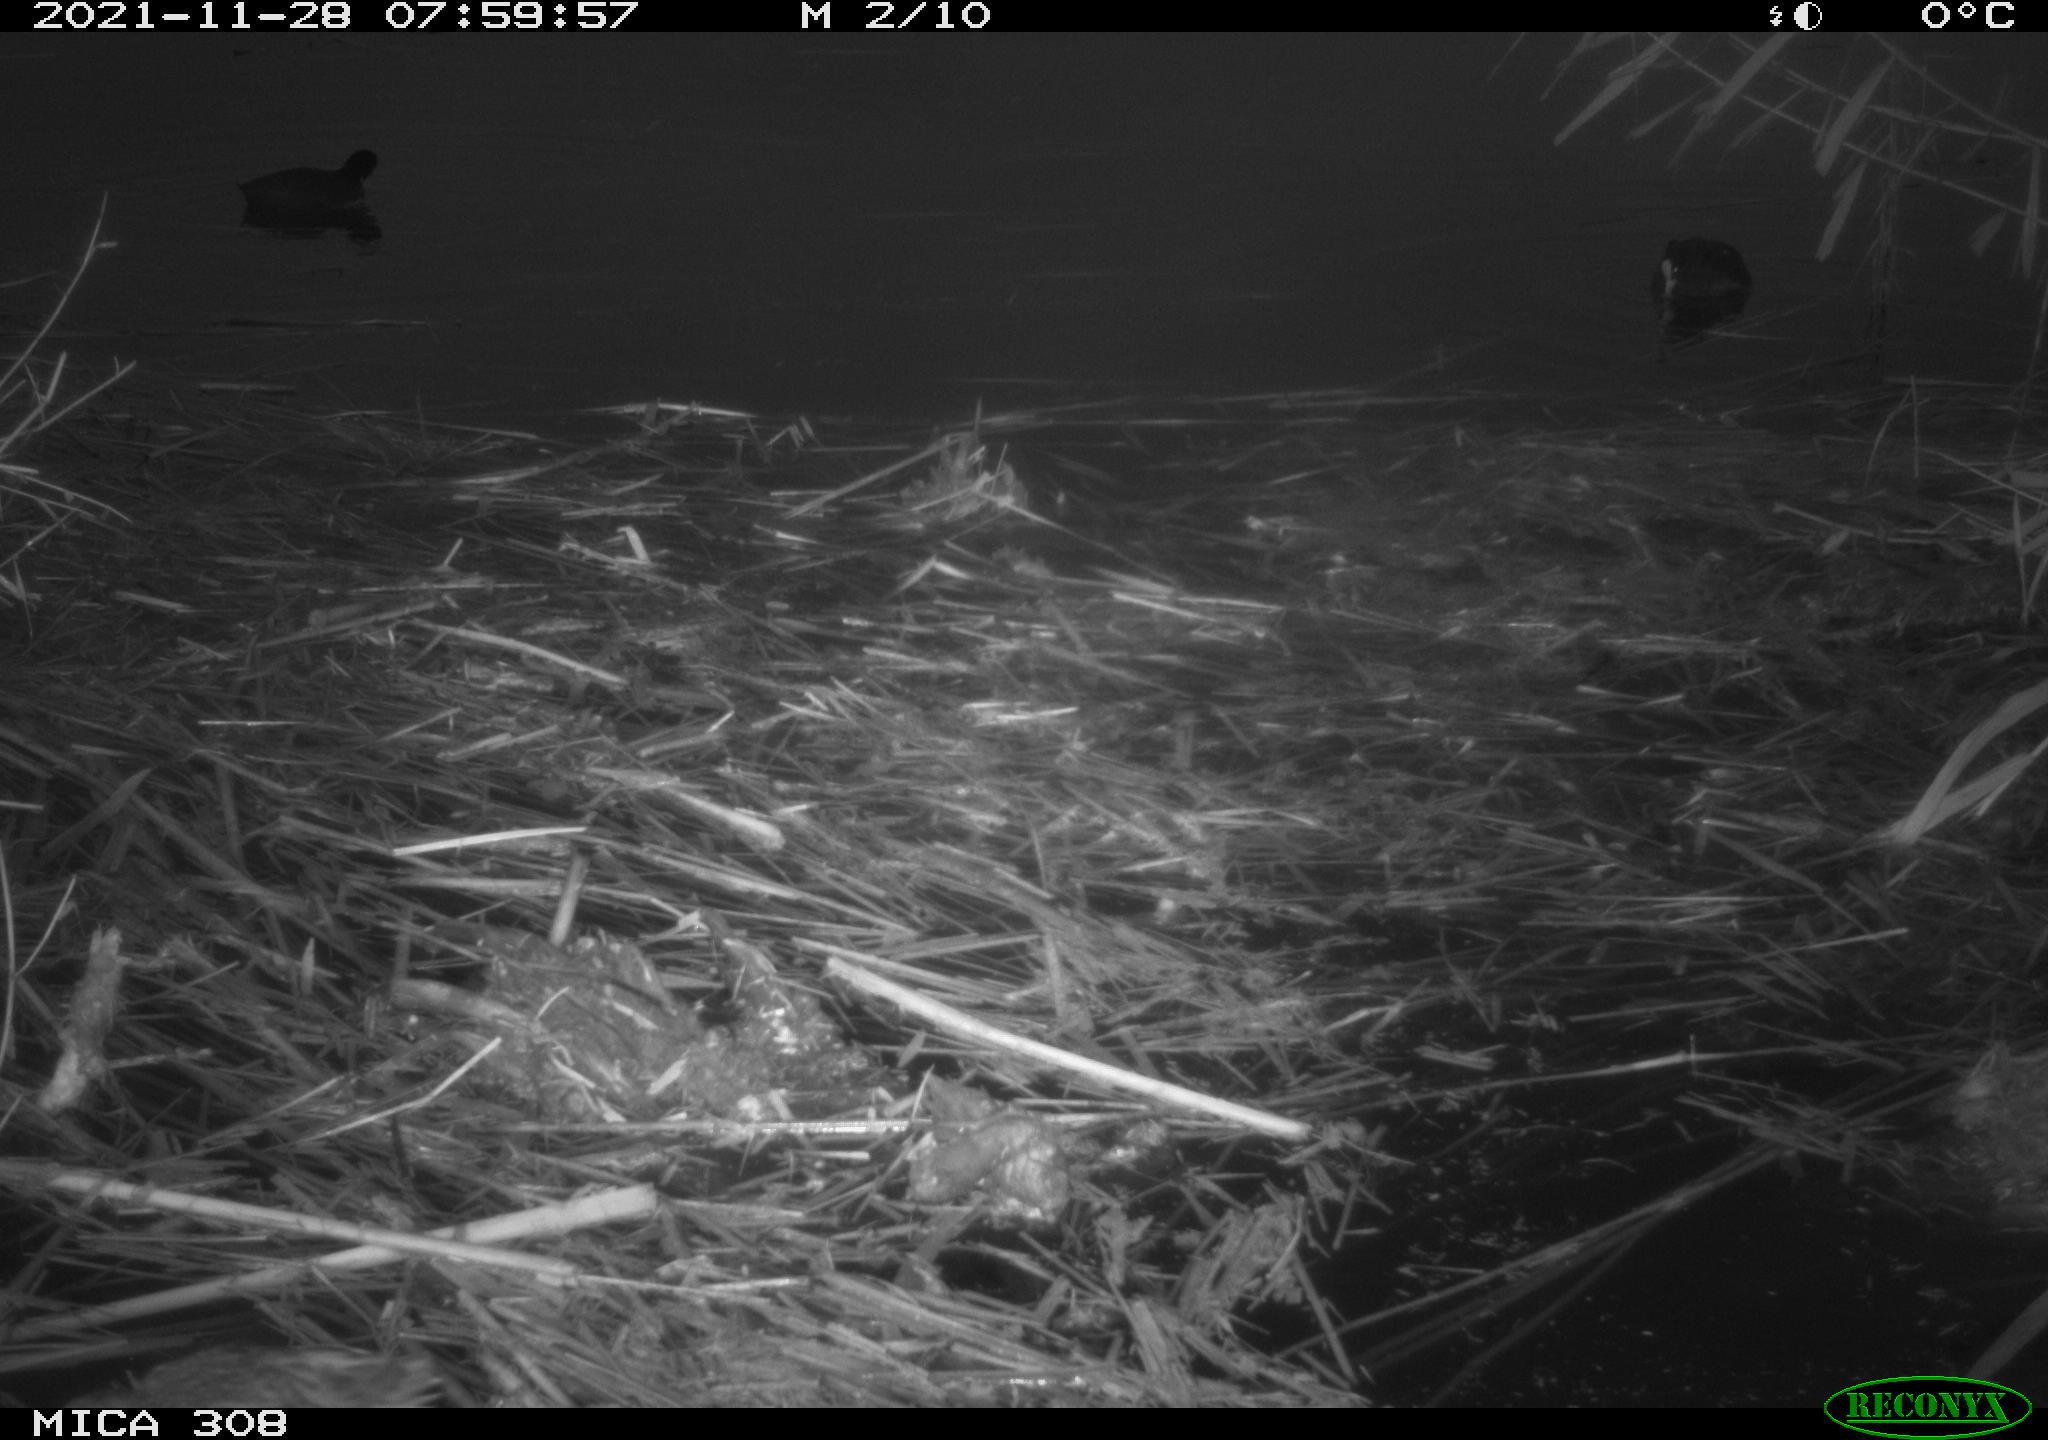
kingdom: Animalia
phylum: Chordata
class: Aves
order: Gruiformes
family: Rallidae
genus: Fulica
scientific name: Fulica atra
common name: Eurasian coot
